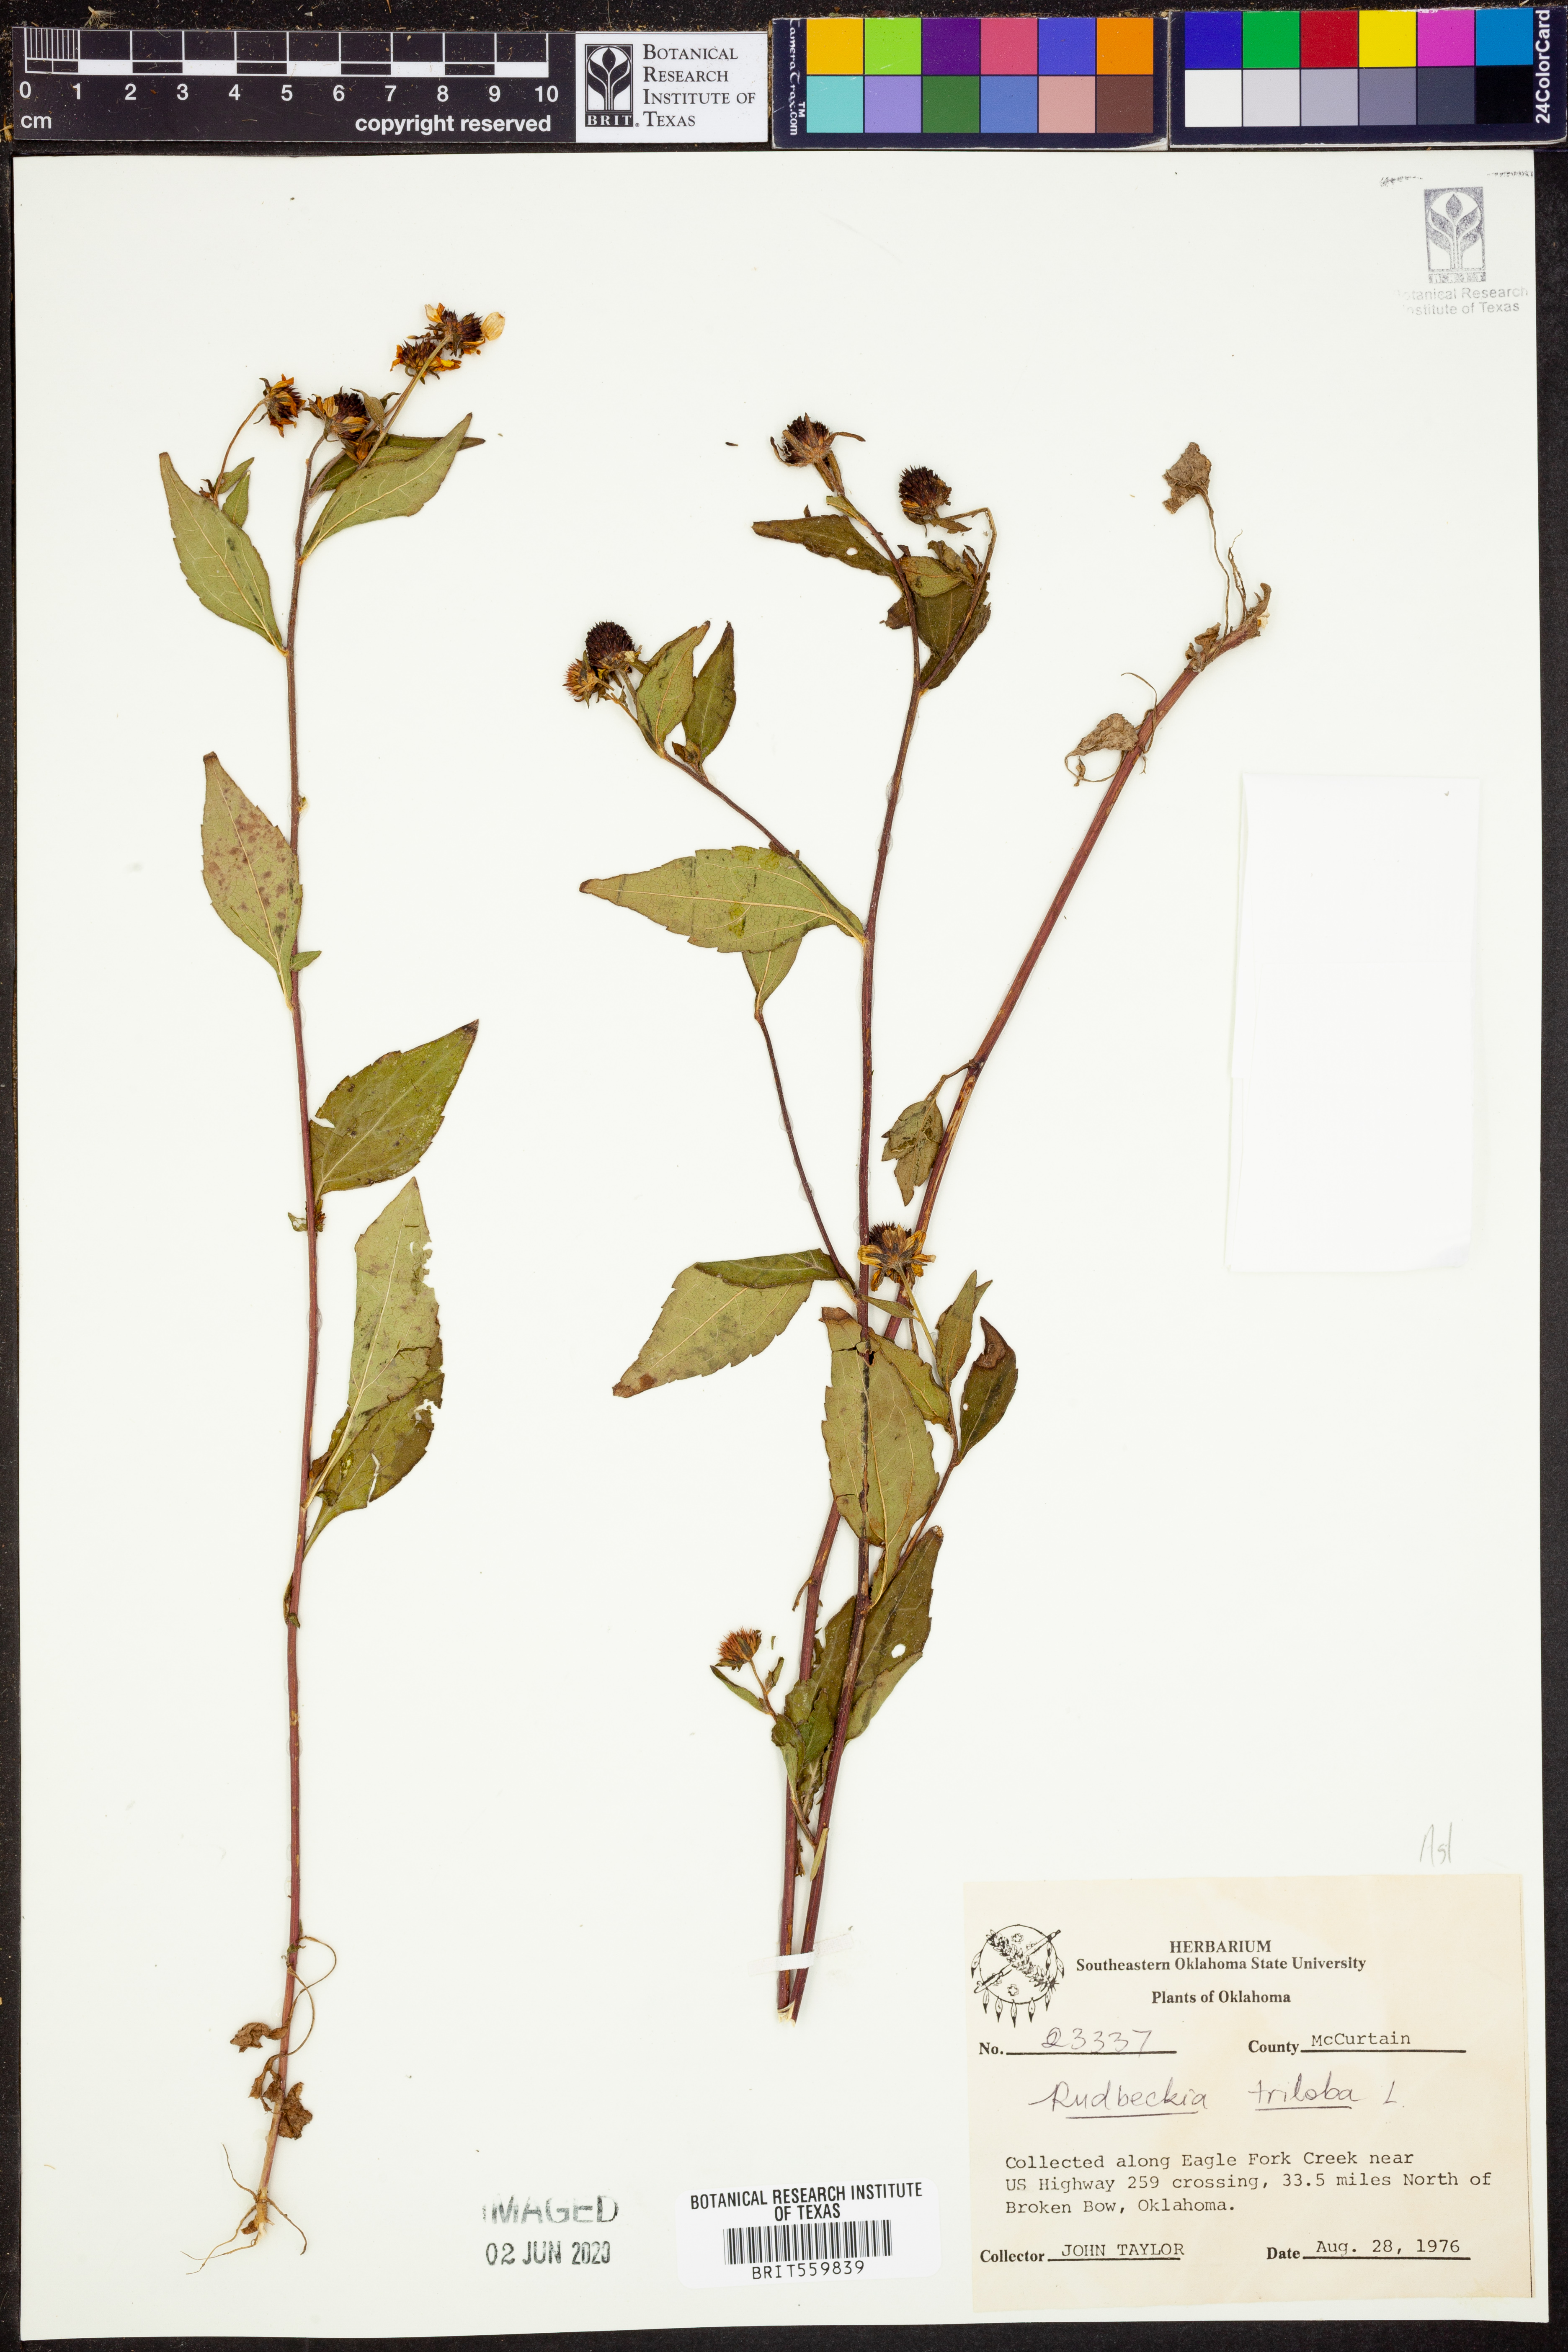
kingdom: Plantae
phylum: Tracheophyta
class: Magnoliopsida
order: Asterales
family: Asteraceae
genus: Rudbeckia
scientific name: Rudbeckia triloba
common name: Thin-leaved coneflower
